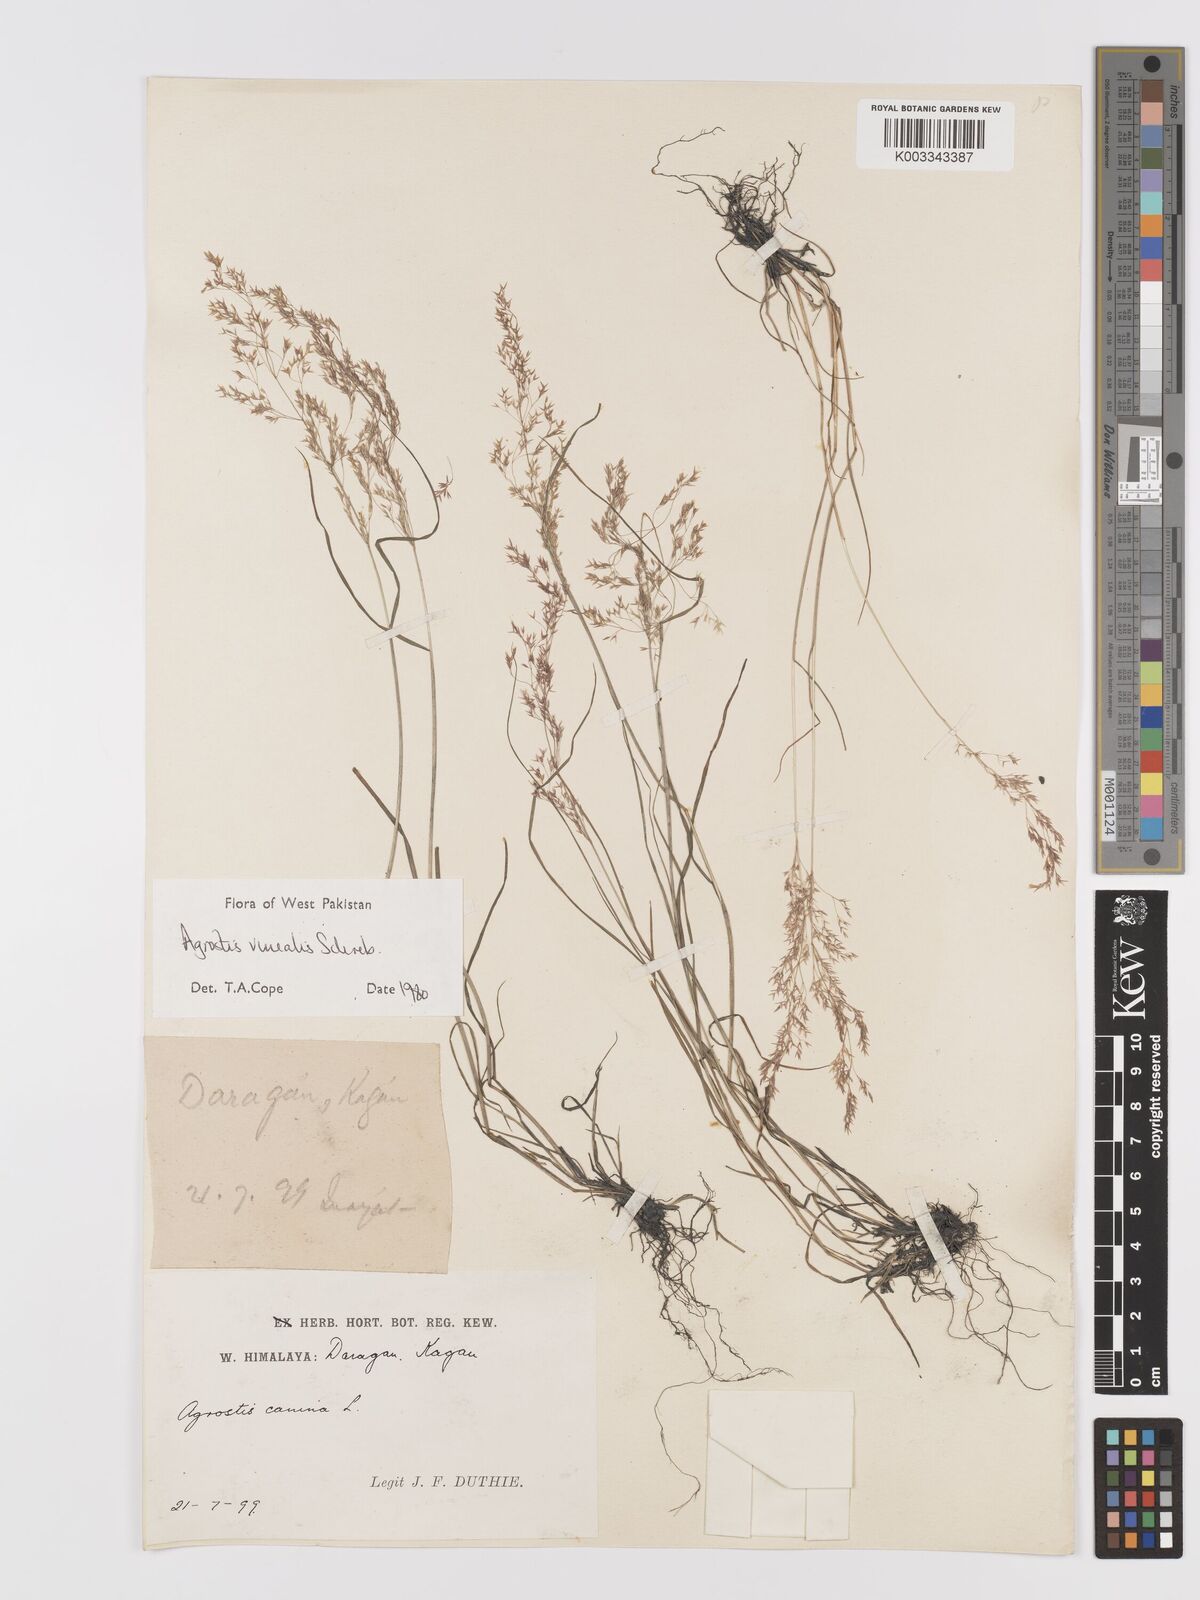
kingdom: Plantae
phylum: Tracheophyta
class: Liliopsida
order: Poales
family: Poaceae
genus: Agrostis
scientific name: Agrostis vinealis
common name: Brown bent
